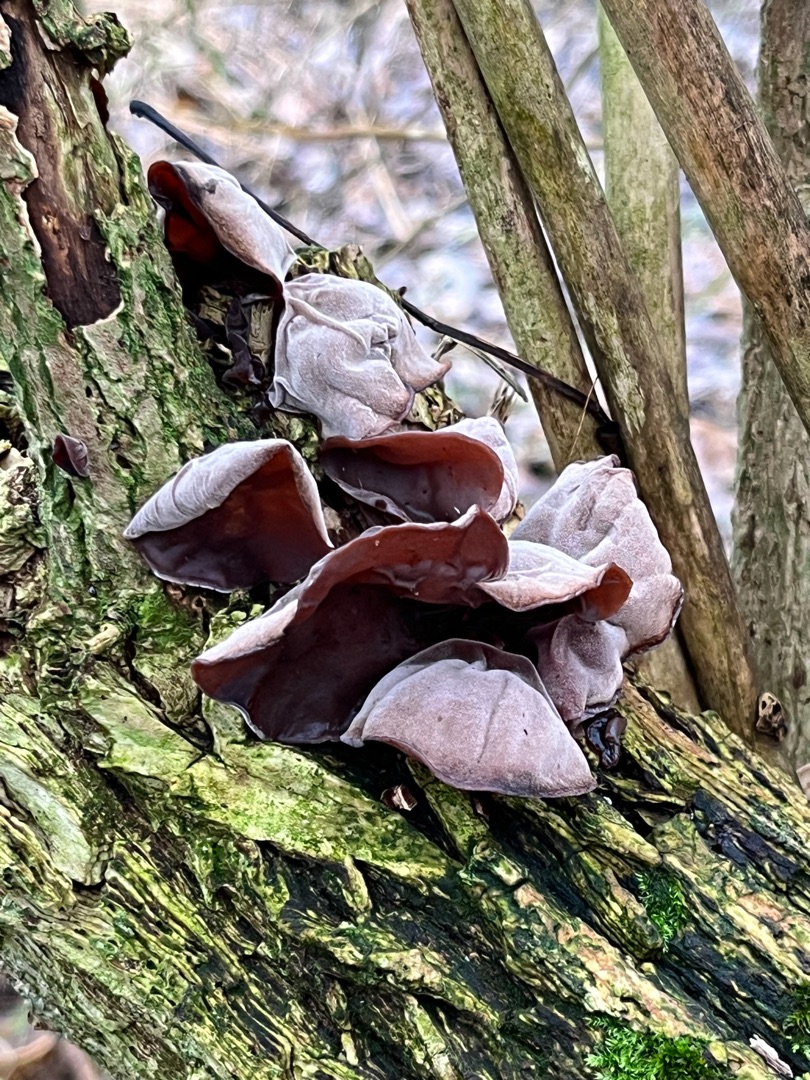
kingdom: Fungi
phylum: Basidiomycota
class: Agaricomycetes
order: Auriculariales
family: Auriculariaceae
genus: Auricularia
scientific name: Auricularia auricula-judae
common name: Almindelig judasøre
